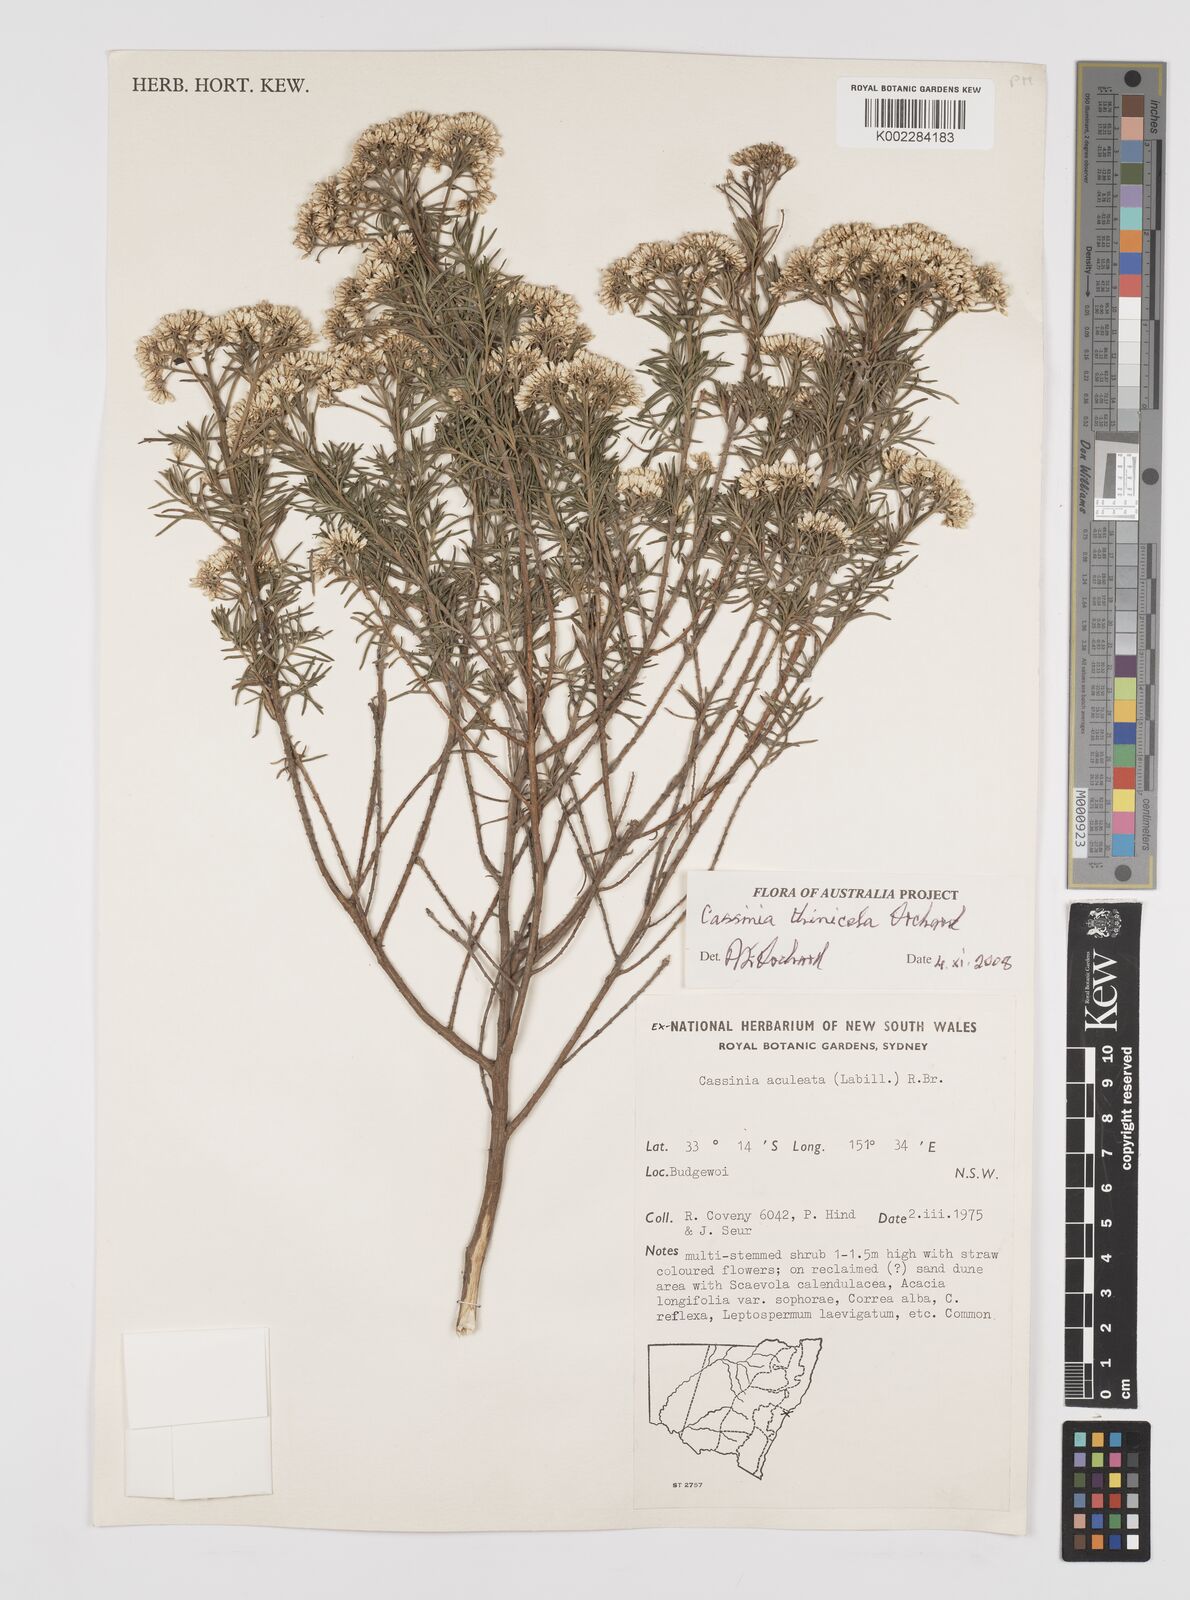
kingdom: Plantae
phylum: Tracheophyta
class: Magnoliopsida
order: Asterales
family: Asteraceae
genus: Cassinia
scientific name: Cassinia thinicola
